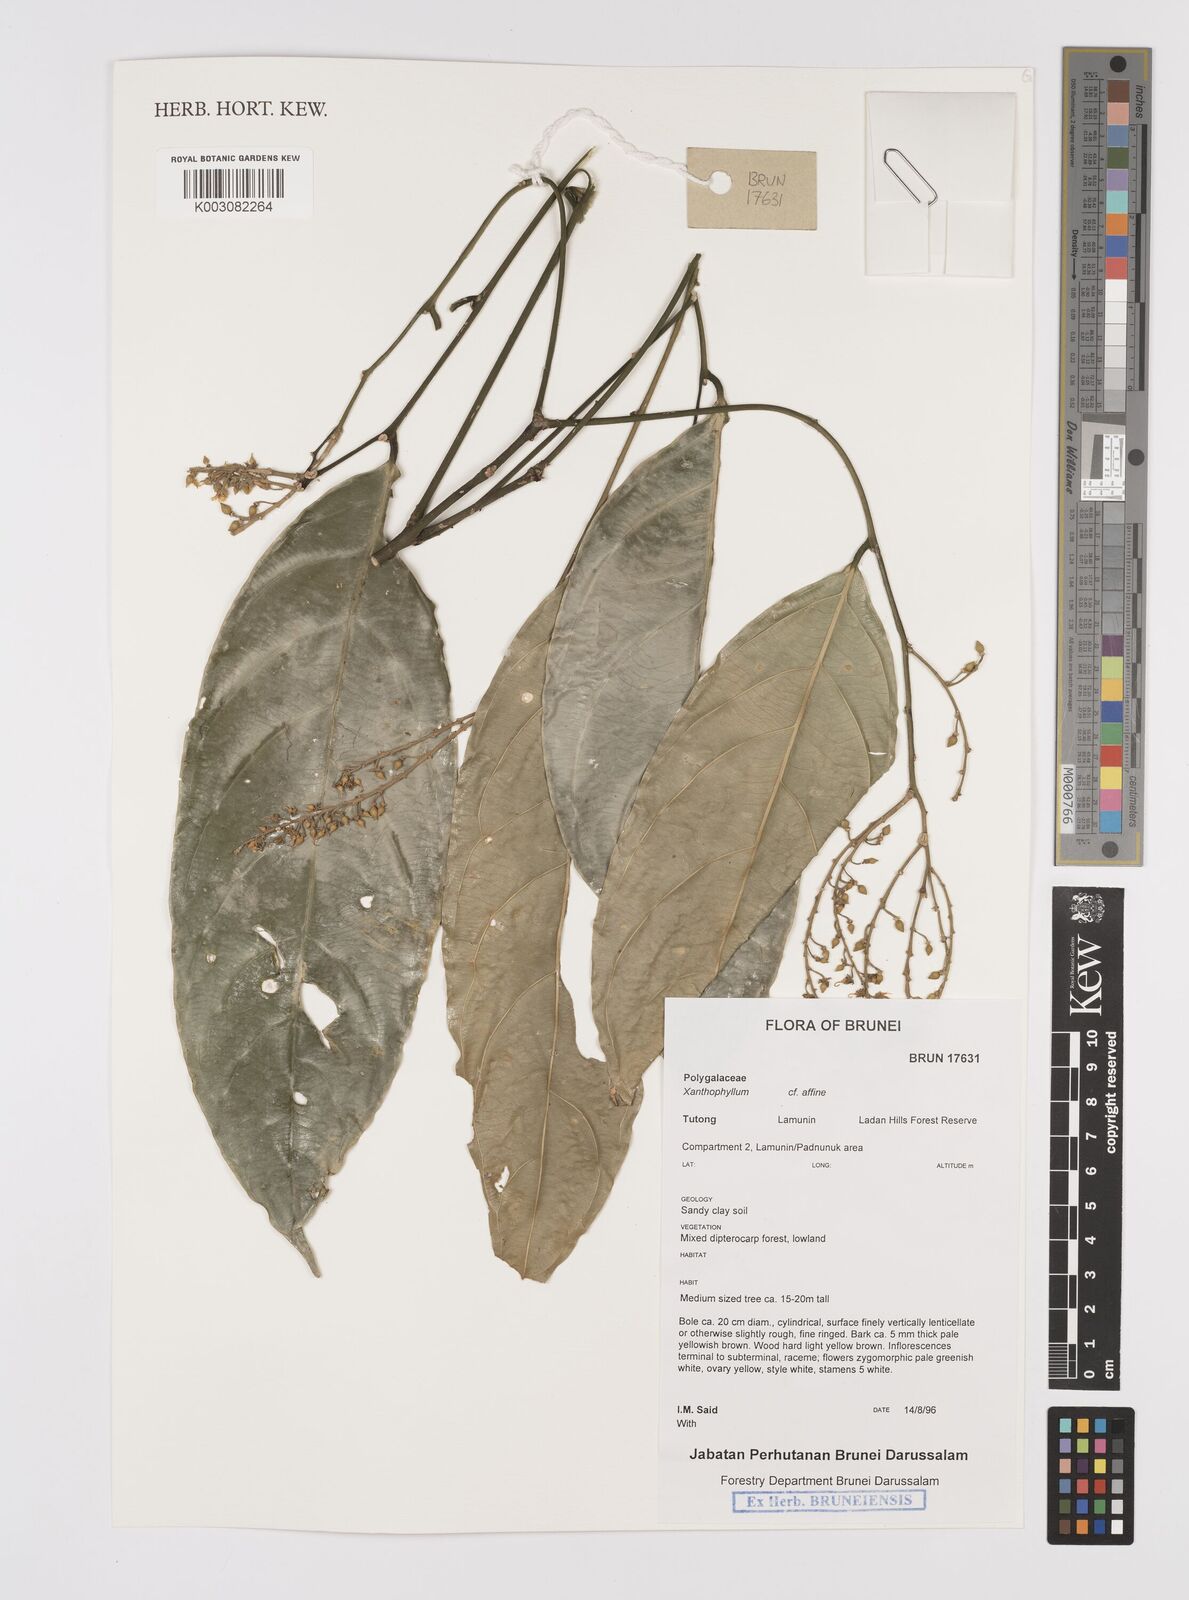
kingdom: Plantae
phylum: Tracheophyta
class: Magnoliopsida
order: Fabales
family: Polygalaceae
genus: Xanthophyllum
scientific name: Xanthophyllum flavescens
